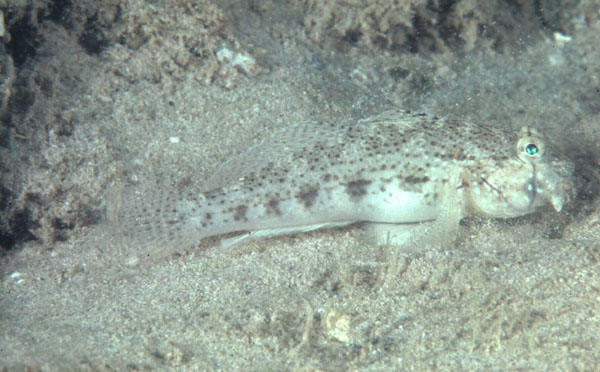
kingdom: Animalia
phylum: Chordata
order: Perciformes
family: Gobiidae
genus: Gnatholepis
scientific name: Gnatholepis cauerensis
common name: Bridled goby
